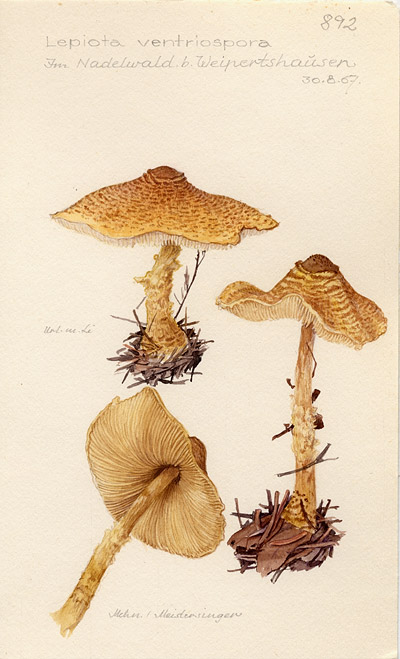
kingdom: Fungi
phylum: Basidiomycota
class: Agaricomycetes
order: Agaricales
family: Agaricaceae
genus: Lepiota
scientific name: Lepiota magnispora
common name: Yellowfoot dapperling
